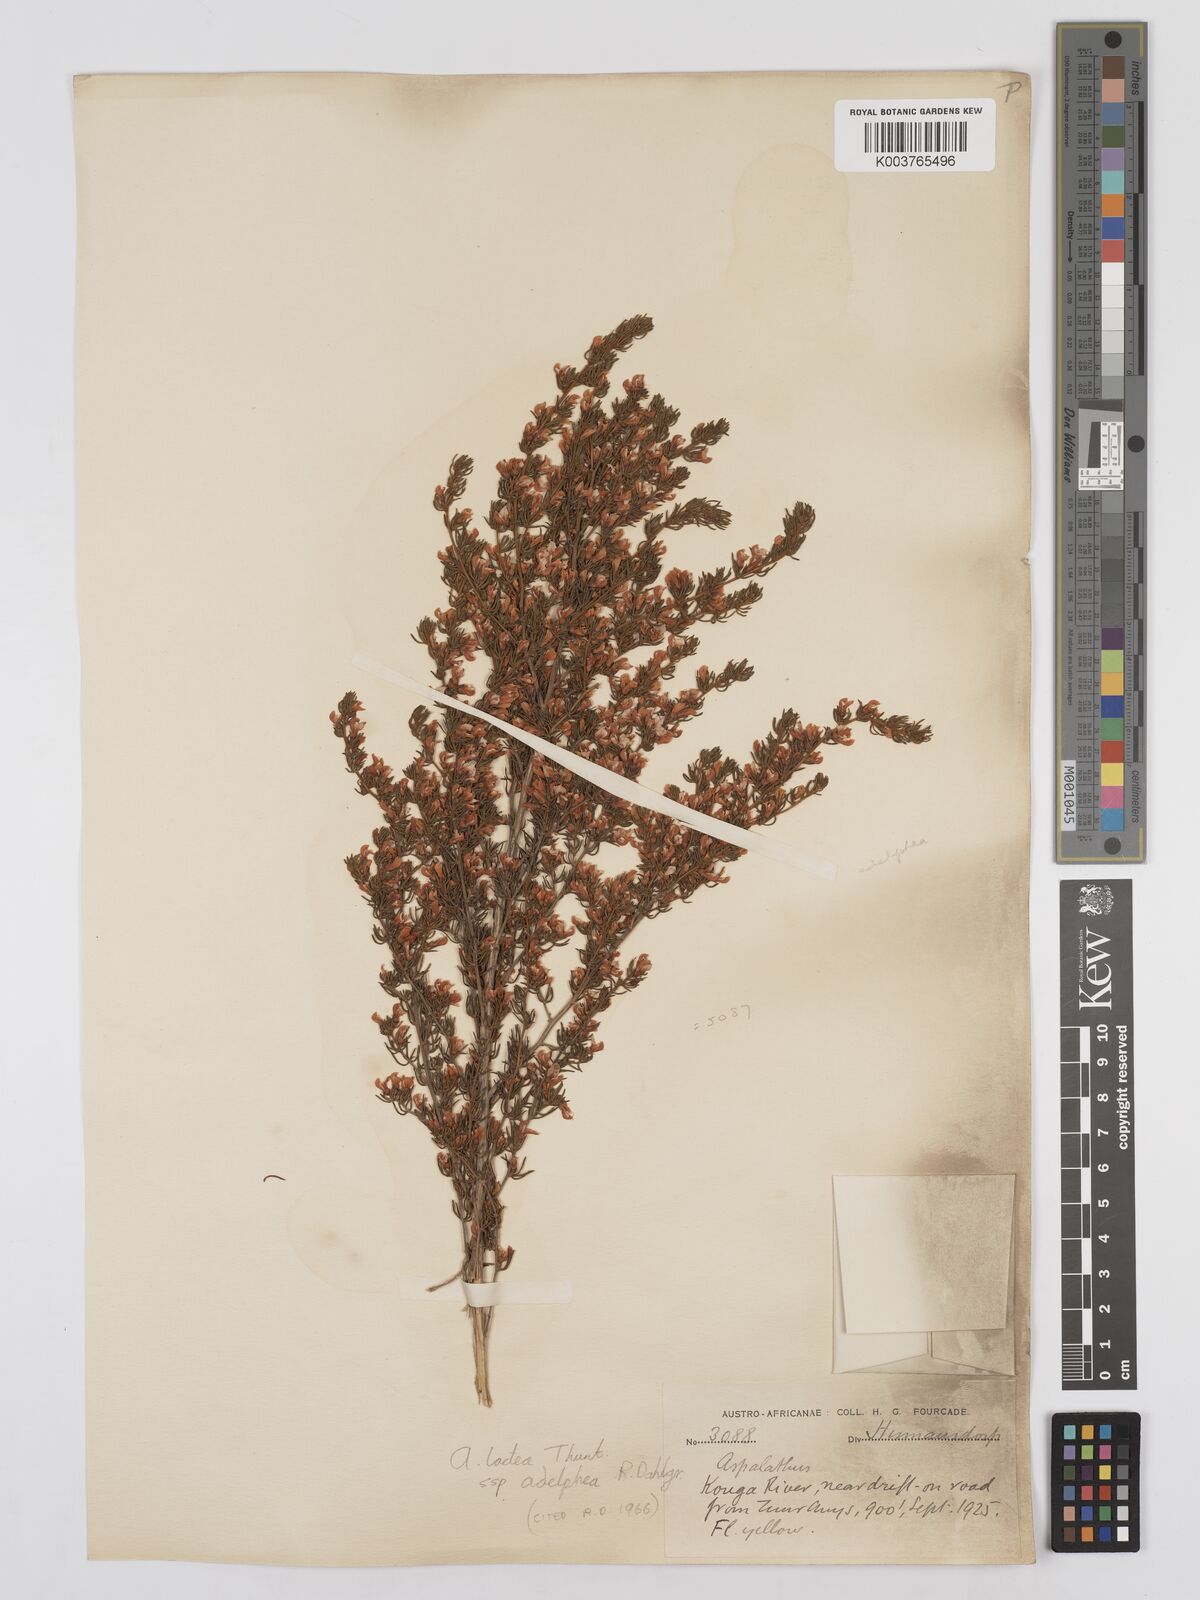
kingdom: Plantae
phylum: Tracheophyta
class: Magnoliopsida
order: Fabales
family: Fabaceae
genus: Aspalathus
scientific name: Aspalathus lactea
